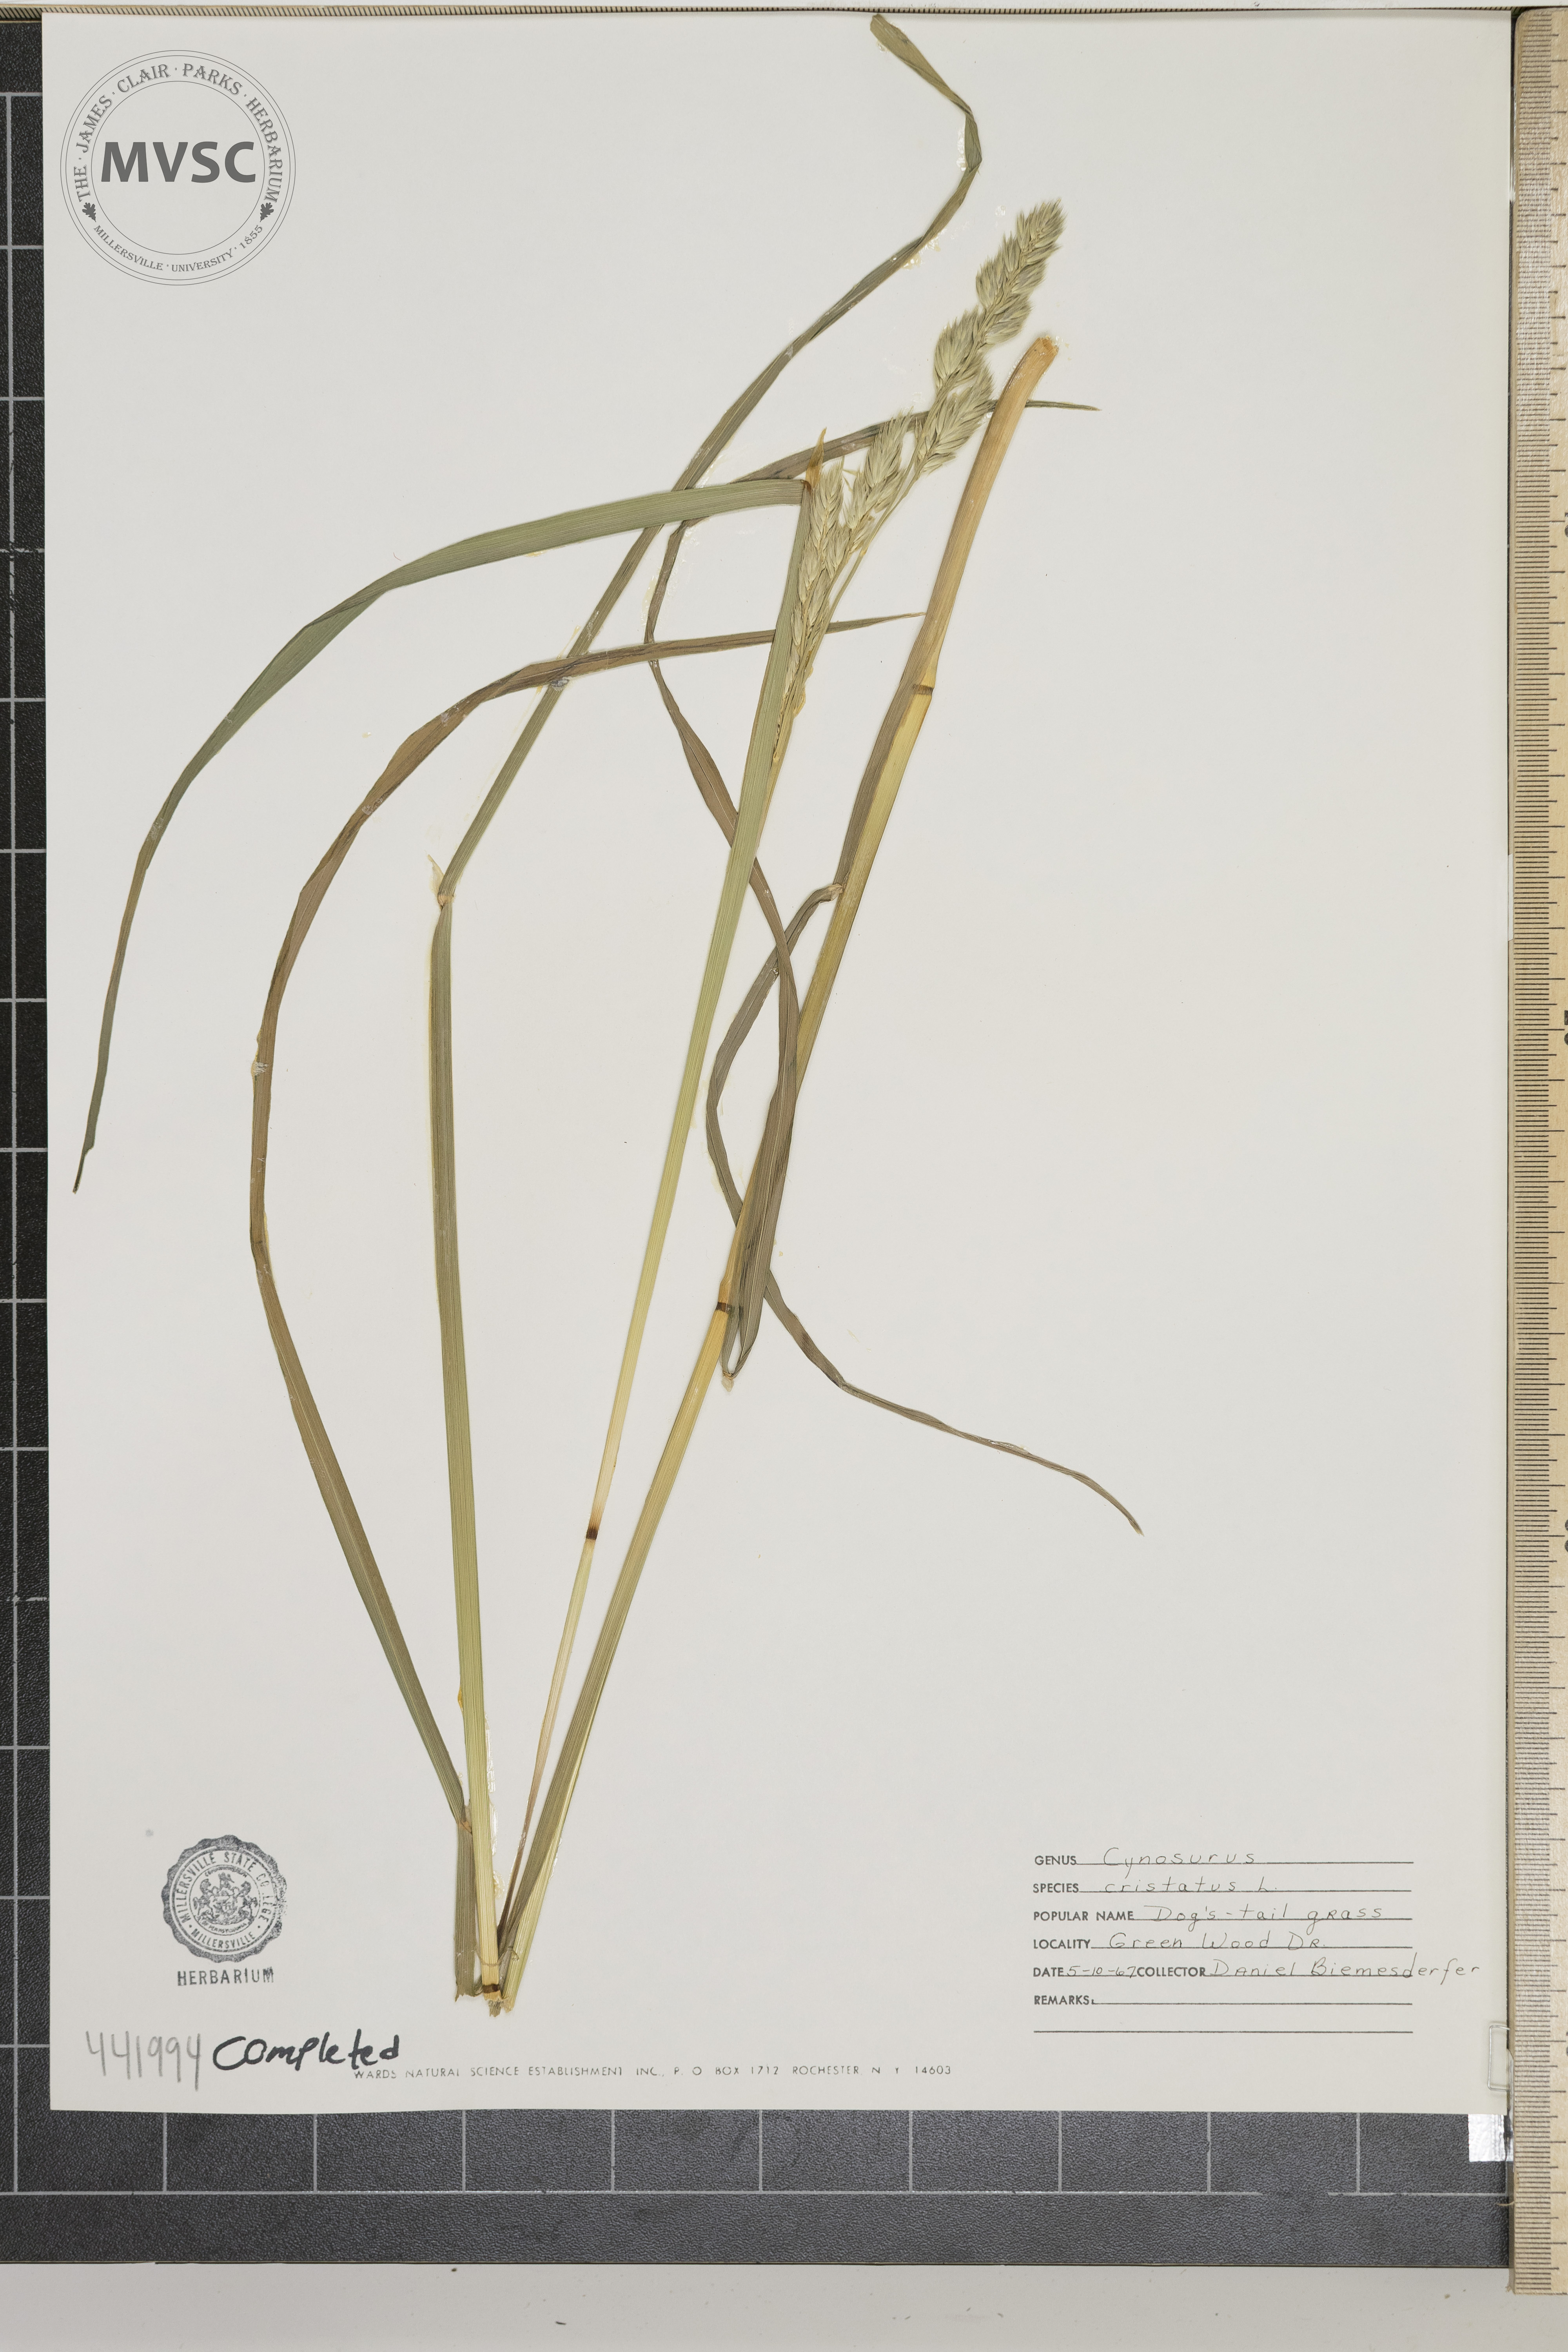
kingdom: Plantae
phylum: Tracheophyta
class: Liliopsida
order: Poales
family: Poaceae
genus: Dactylis
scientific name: Dactylis glomerata
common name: Orchardgrass
